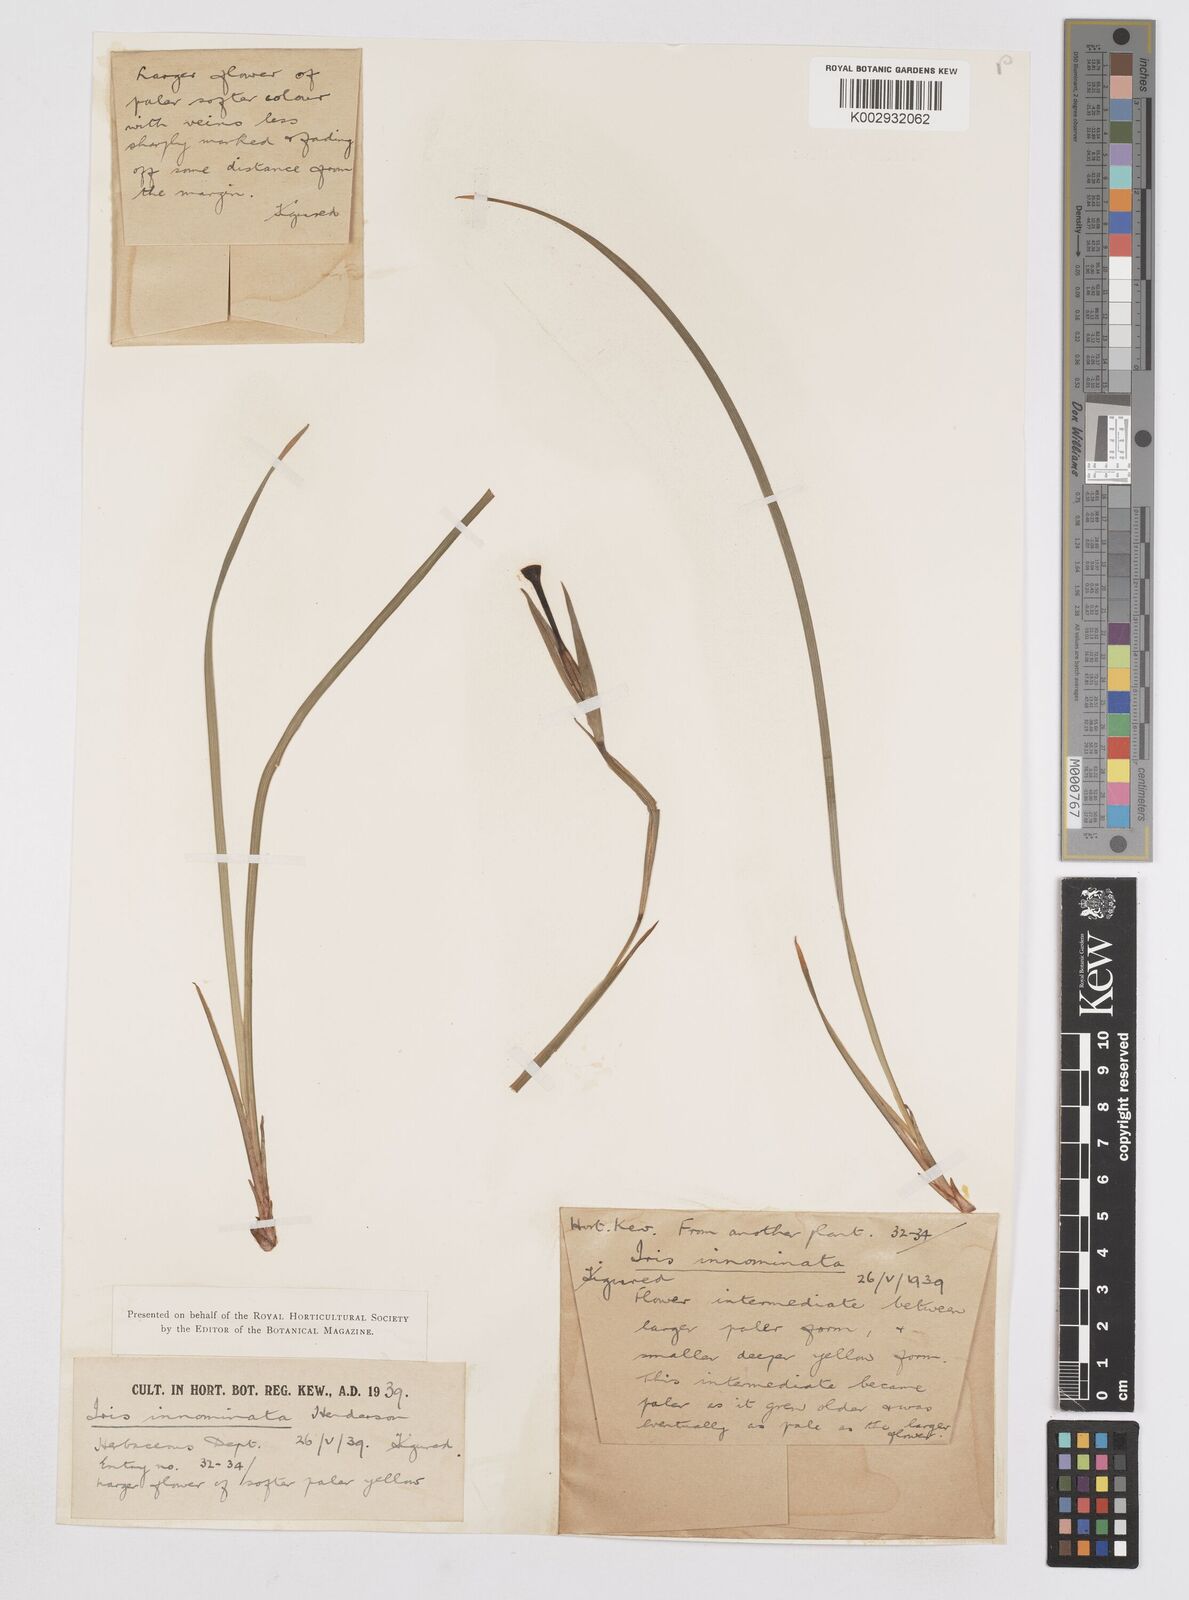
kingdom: Plantae
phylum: Tracheophyta
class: Liliopsida
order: Asparagales
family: Iridaceae
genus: Iris
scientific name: Iris innominata
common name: Del norte county iris
